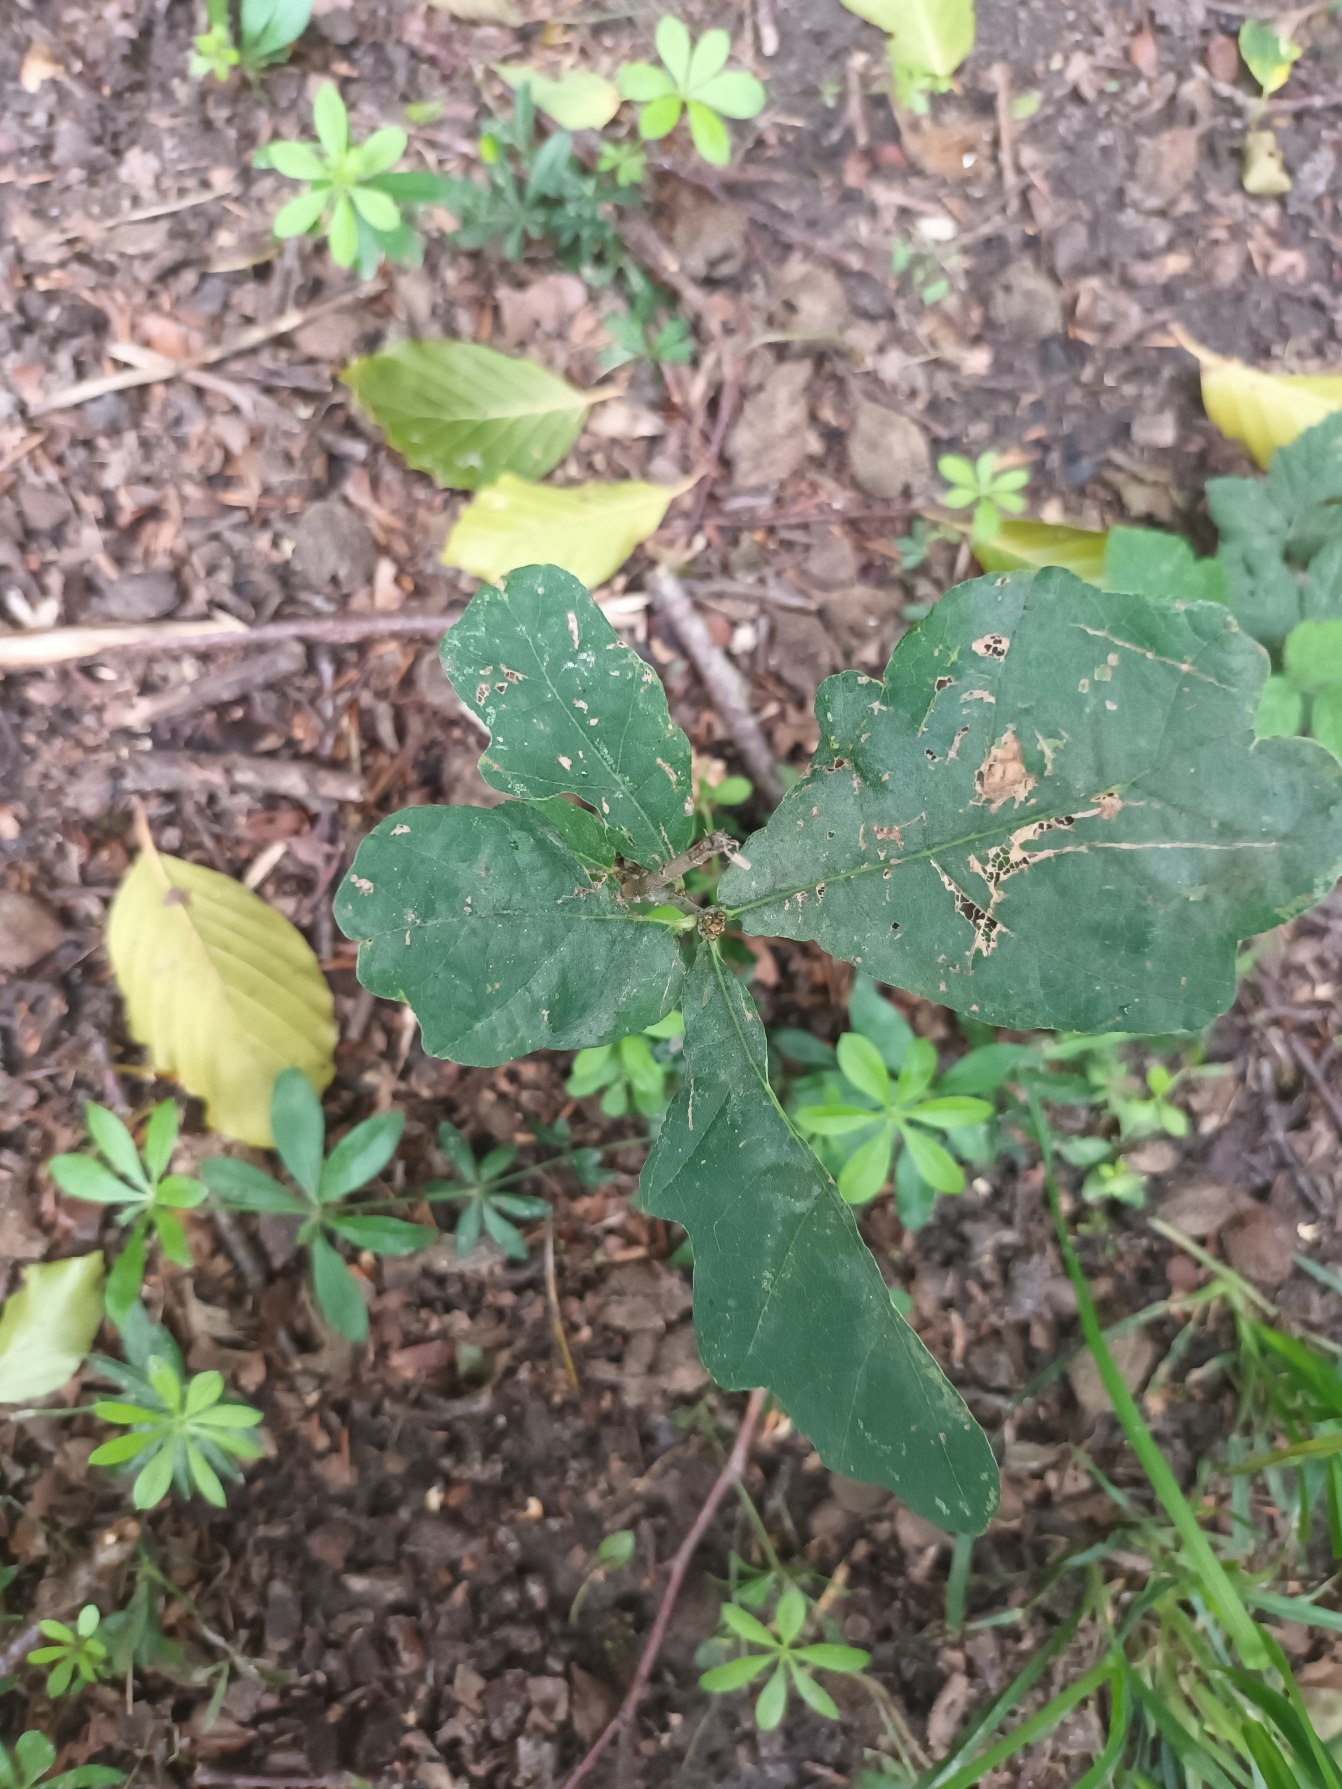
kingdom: Plantae
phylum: Tracheophyta
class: Magnoliopsida
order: Fagales
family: Fagaceae
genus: Quercus
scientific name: Quercus robur
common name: Stilk-eg/almindelig eg
